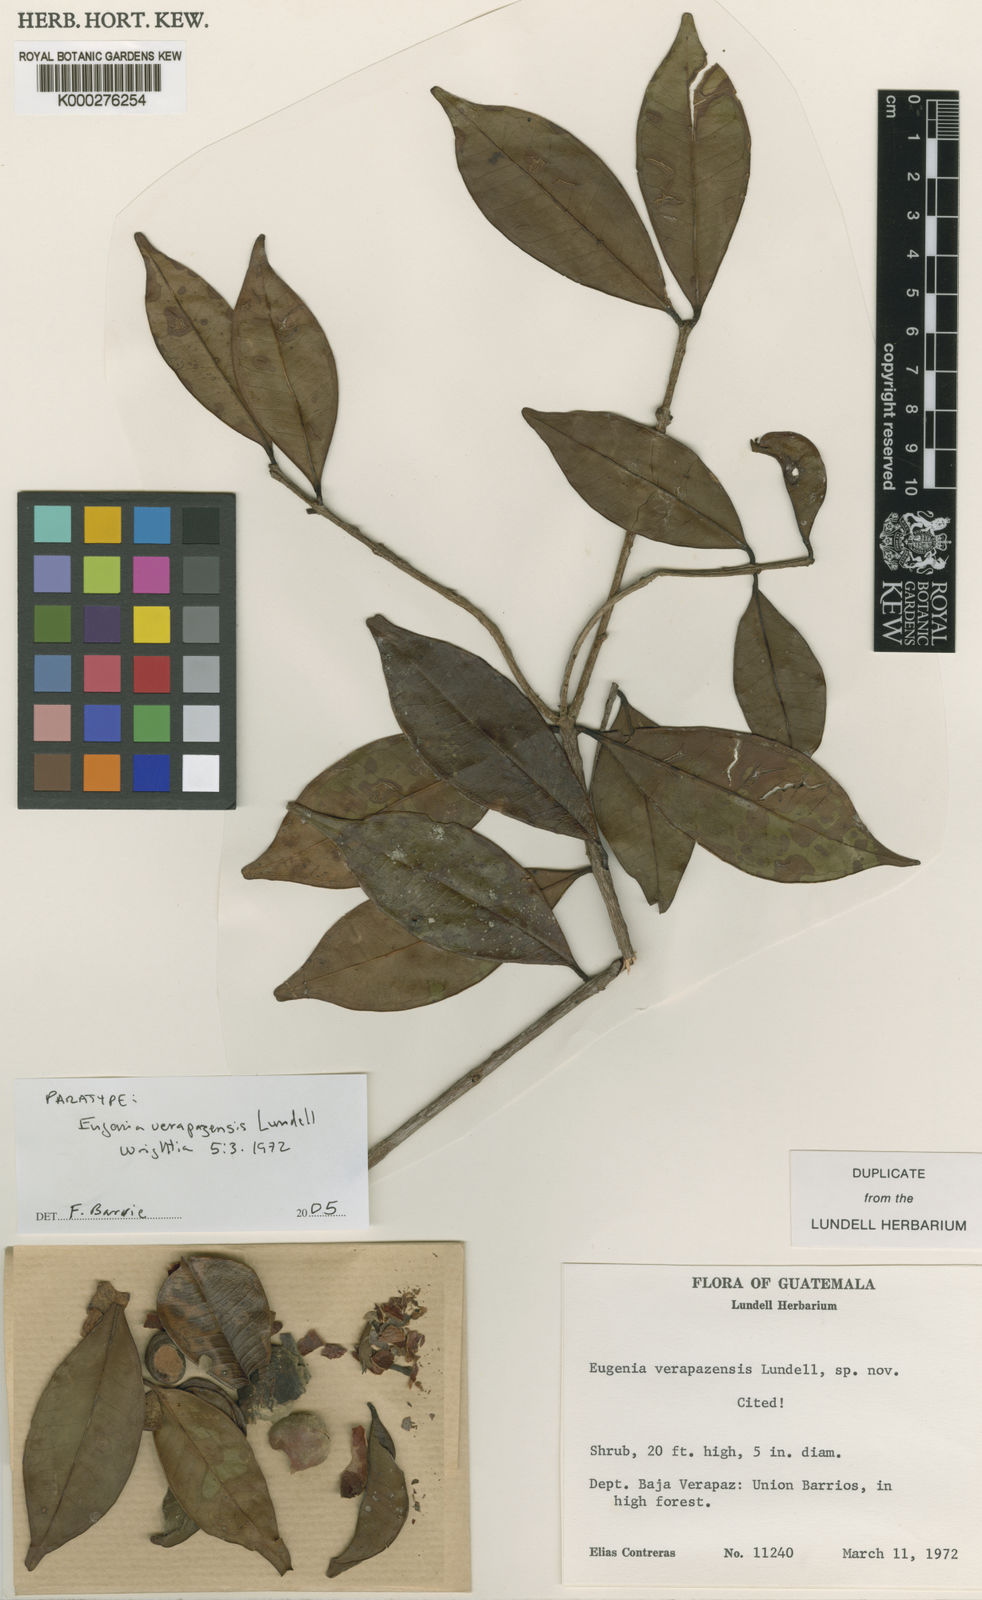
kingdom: Plantae
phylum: Tracheophyta
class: Magnoliopsida
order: Myrtales
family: Myrtaceae
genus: Eugenia
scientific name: Eugenia verapazensis
